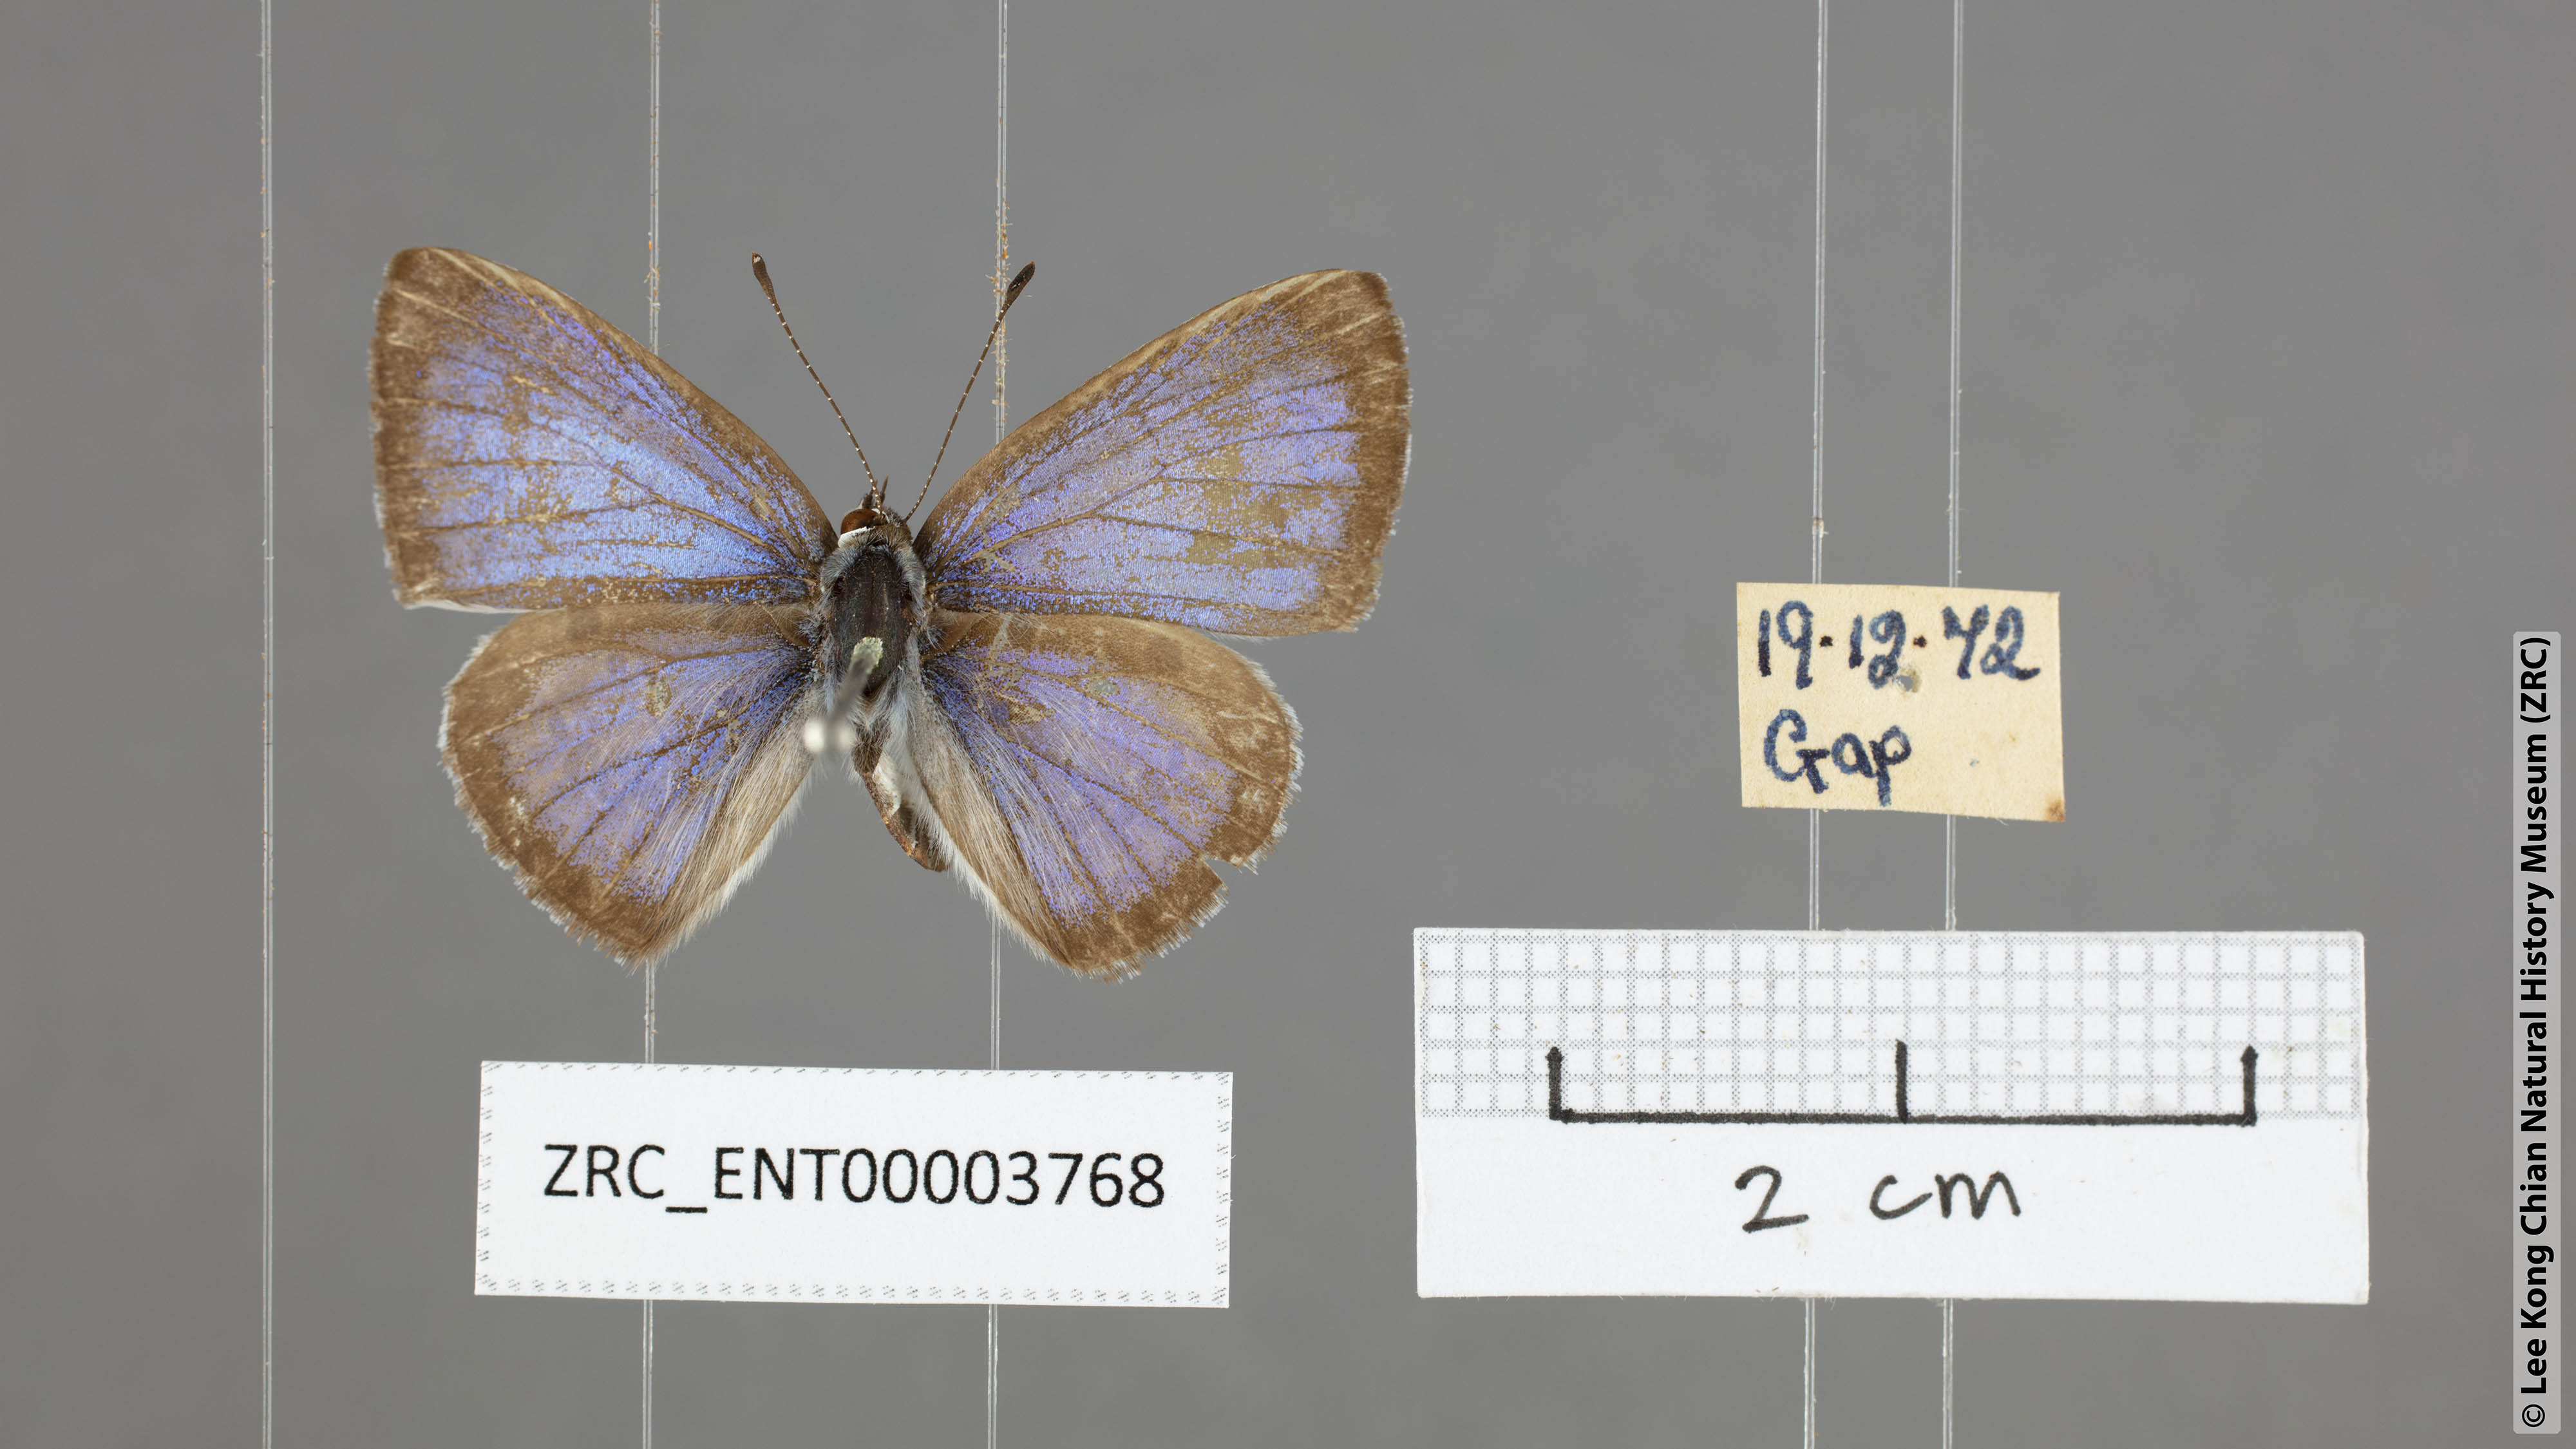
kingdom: Animalia
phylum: Arthropoda
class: Insecta
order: Lepidoptera
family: Lycaenidae
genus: Acytolepis
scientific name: Acytolepis puspa
